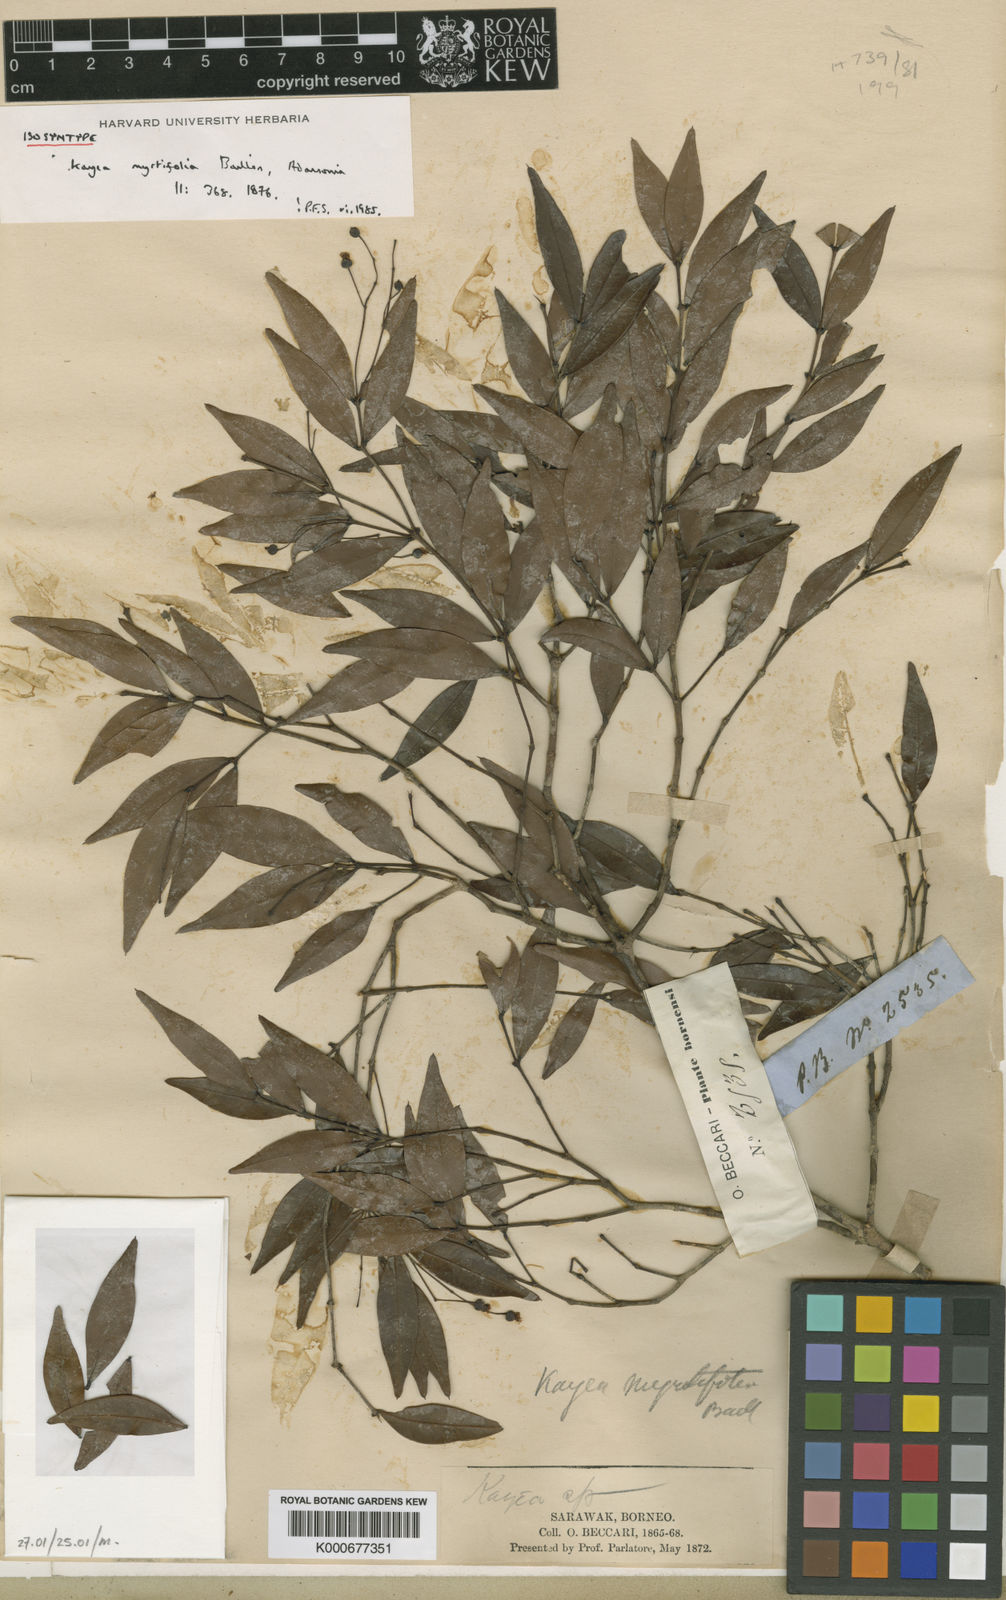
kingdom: Plantae
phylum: Tracheophyta
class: Magnoliopsida
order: Malpighiales
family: Calophyllaceae
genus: Kayea
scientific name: Kayea myrtifolia
